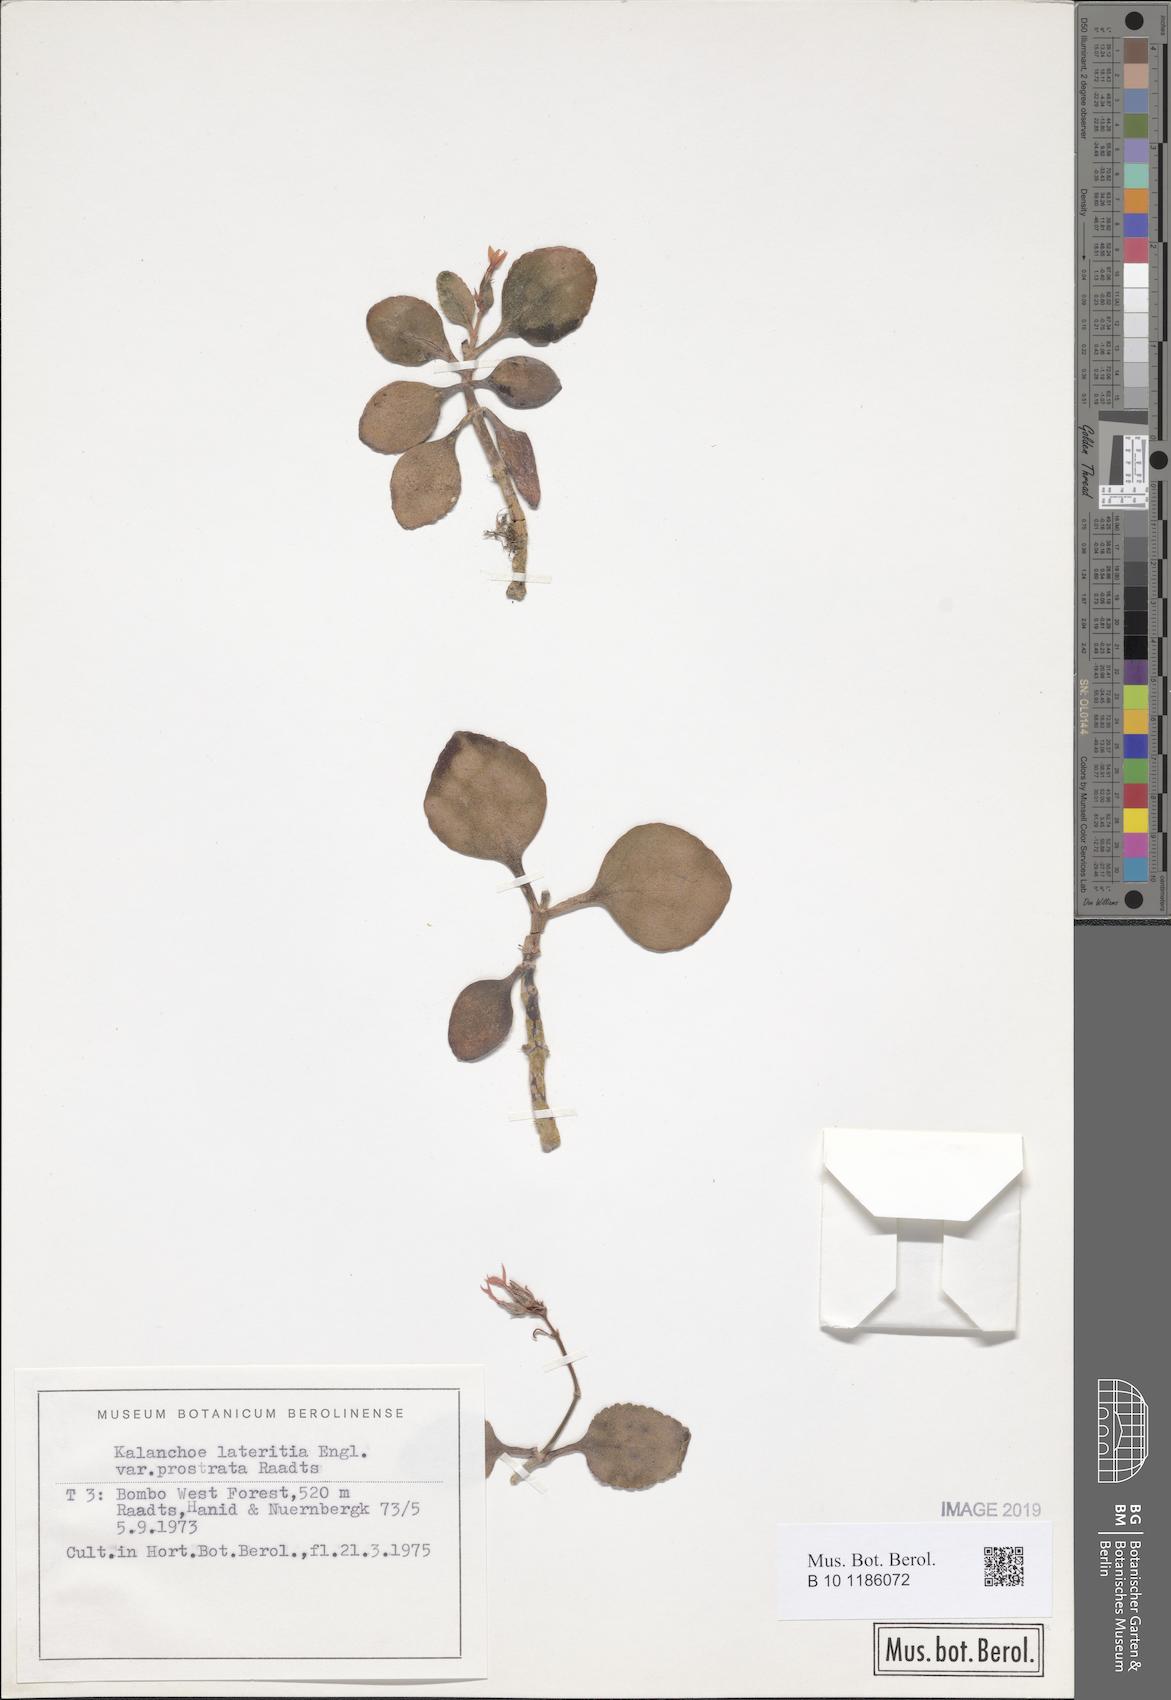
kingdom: Plantae
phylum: Tracheophyta
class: Magnoliopsida
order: Saxifragales
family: Crassulaceae
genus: Kalanchoe
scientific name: Kalanchoe lateritia
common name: Kalanchoe
